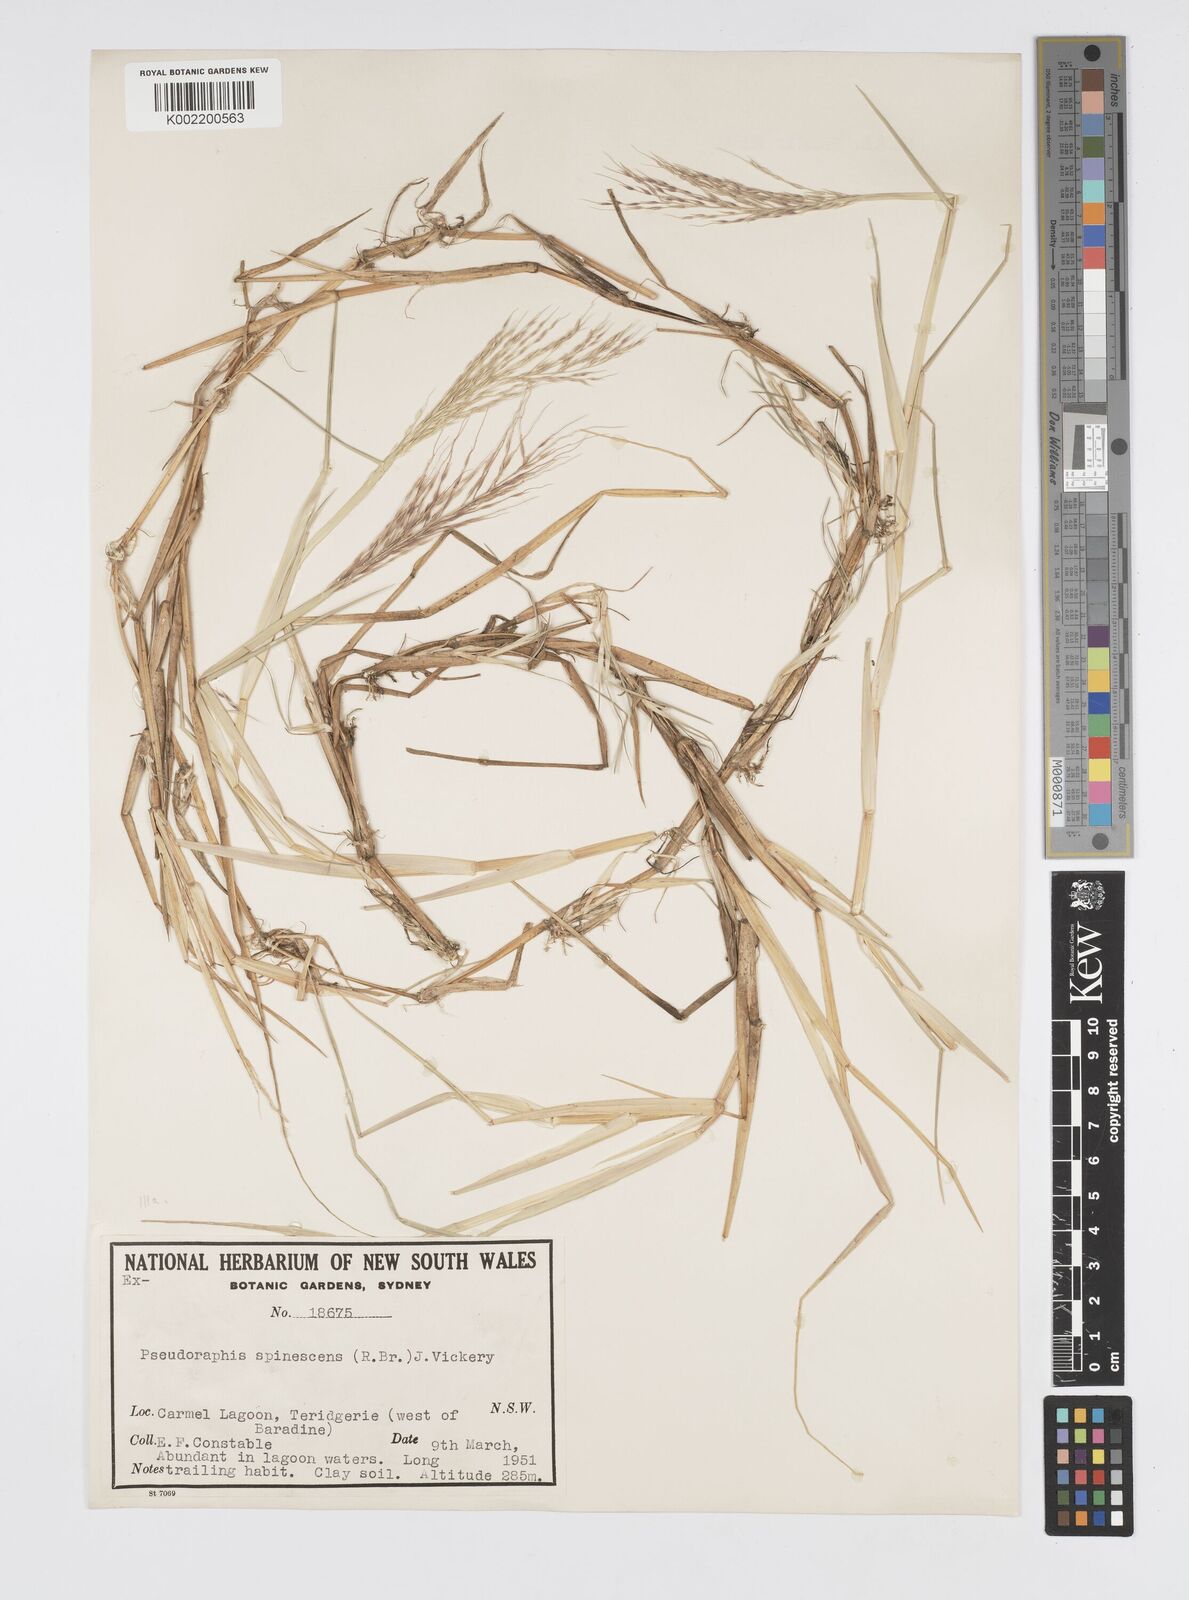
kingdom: Plantae
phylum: Tracheophyta
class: Liliopsida
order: Poales
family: Poaceae
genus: Pseudoraphis
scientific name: Pseudoraphis spinescens
